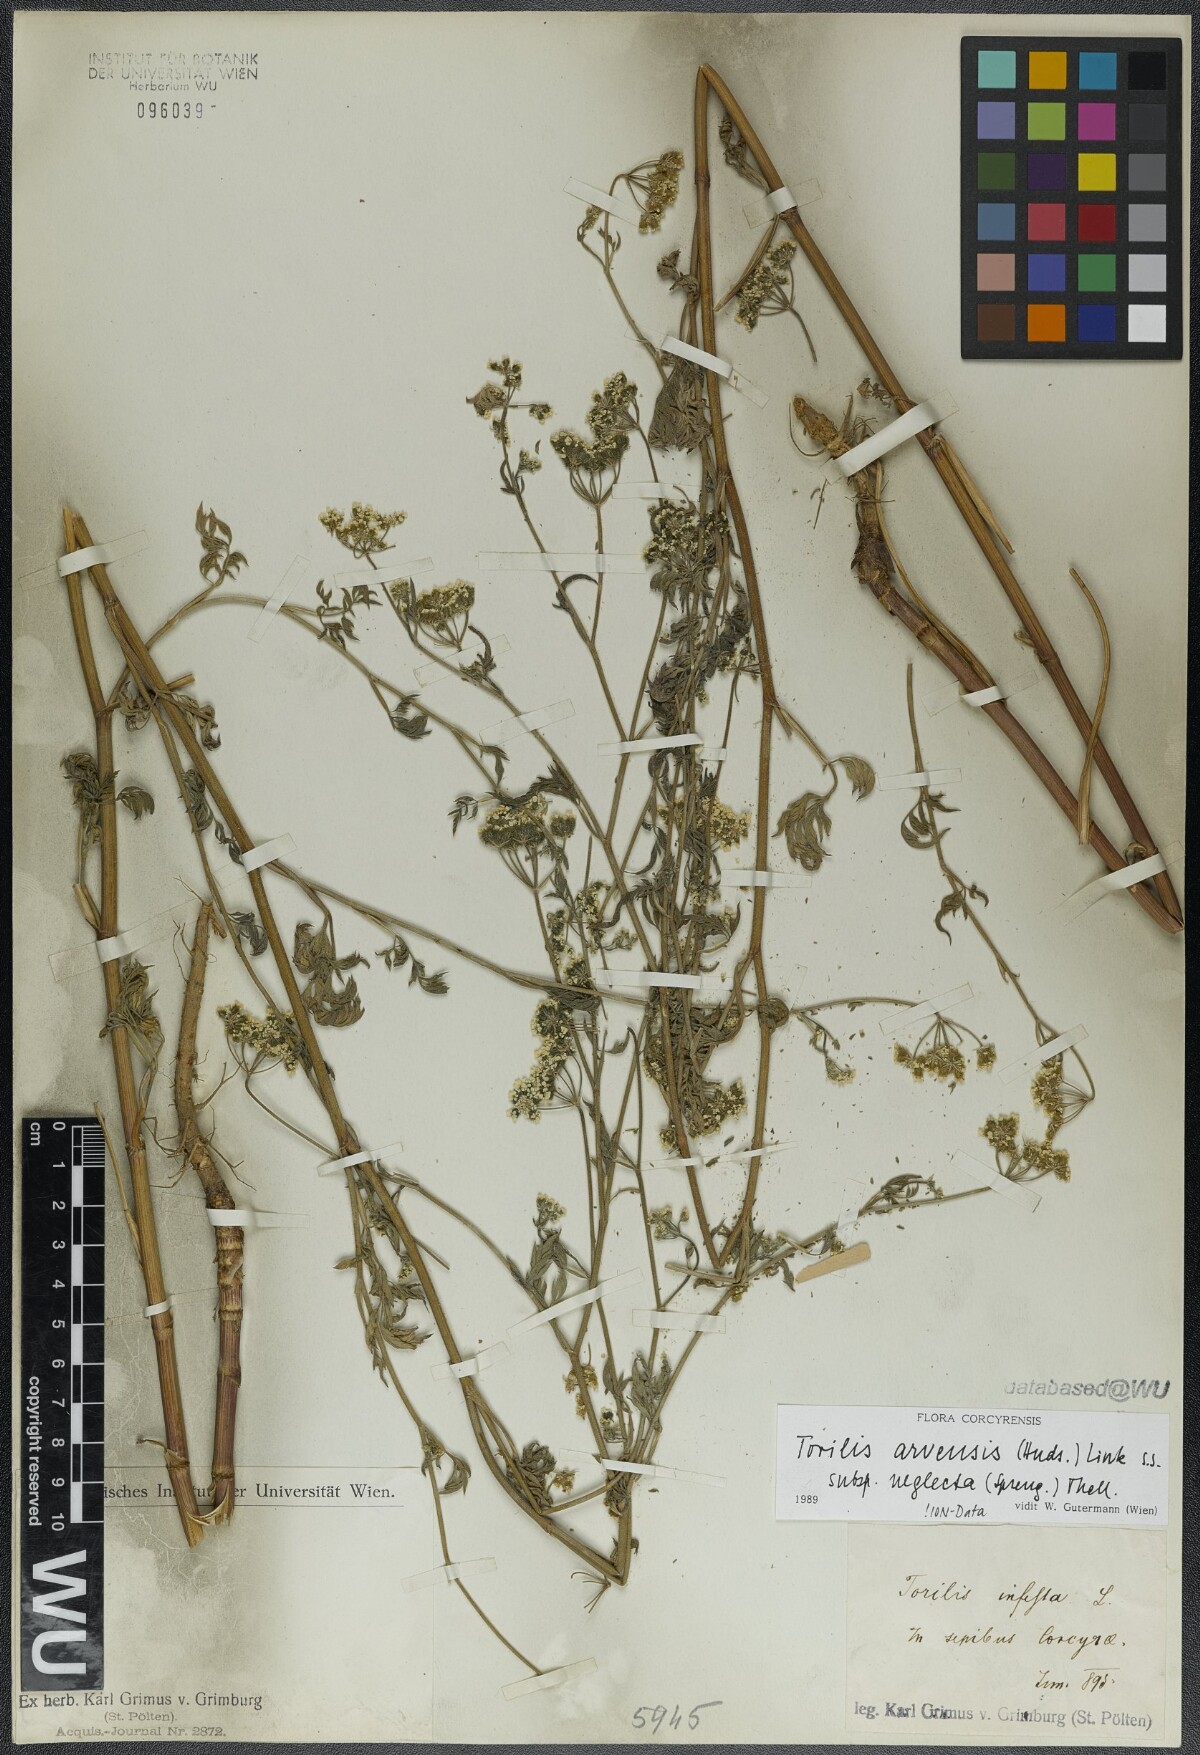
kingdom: Plantae
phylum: Tracheophyta
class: Magnoliopsida
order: Apiales
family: Apiaceae
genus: Torilis
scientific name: Torilis arvensis
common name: Spreading hedge-parsley
